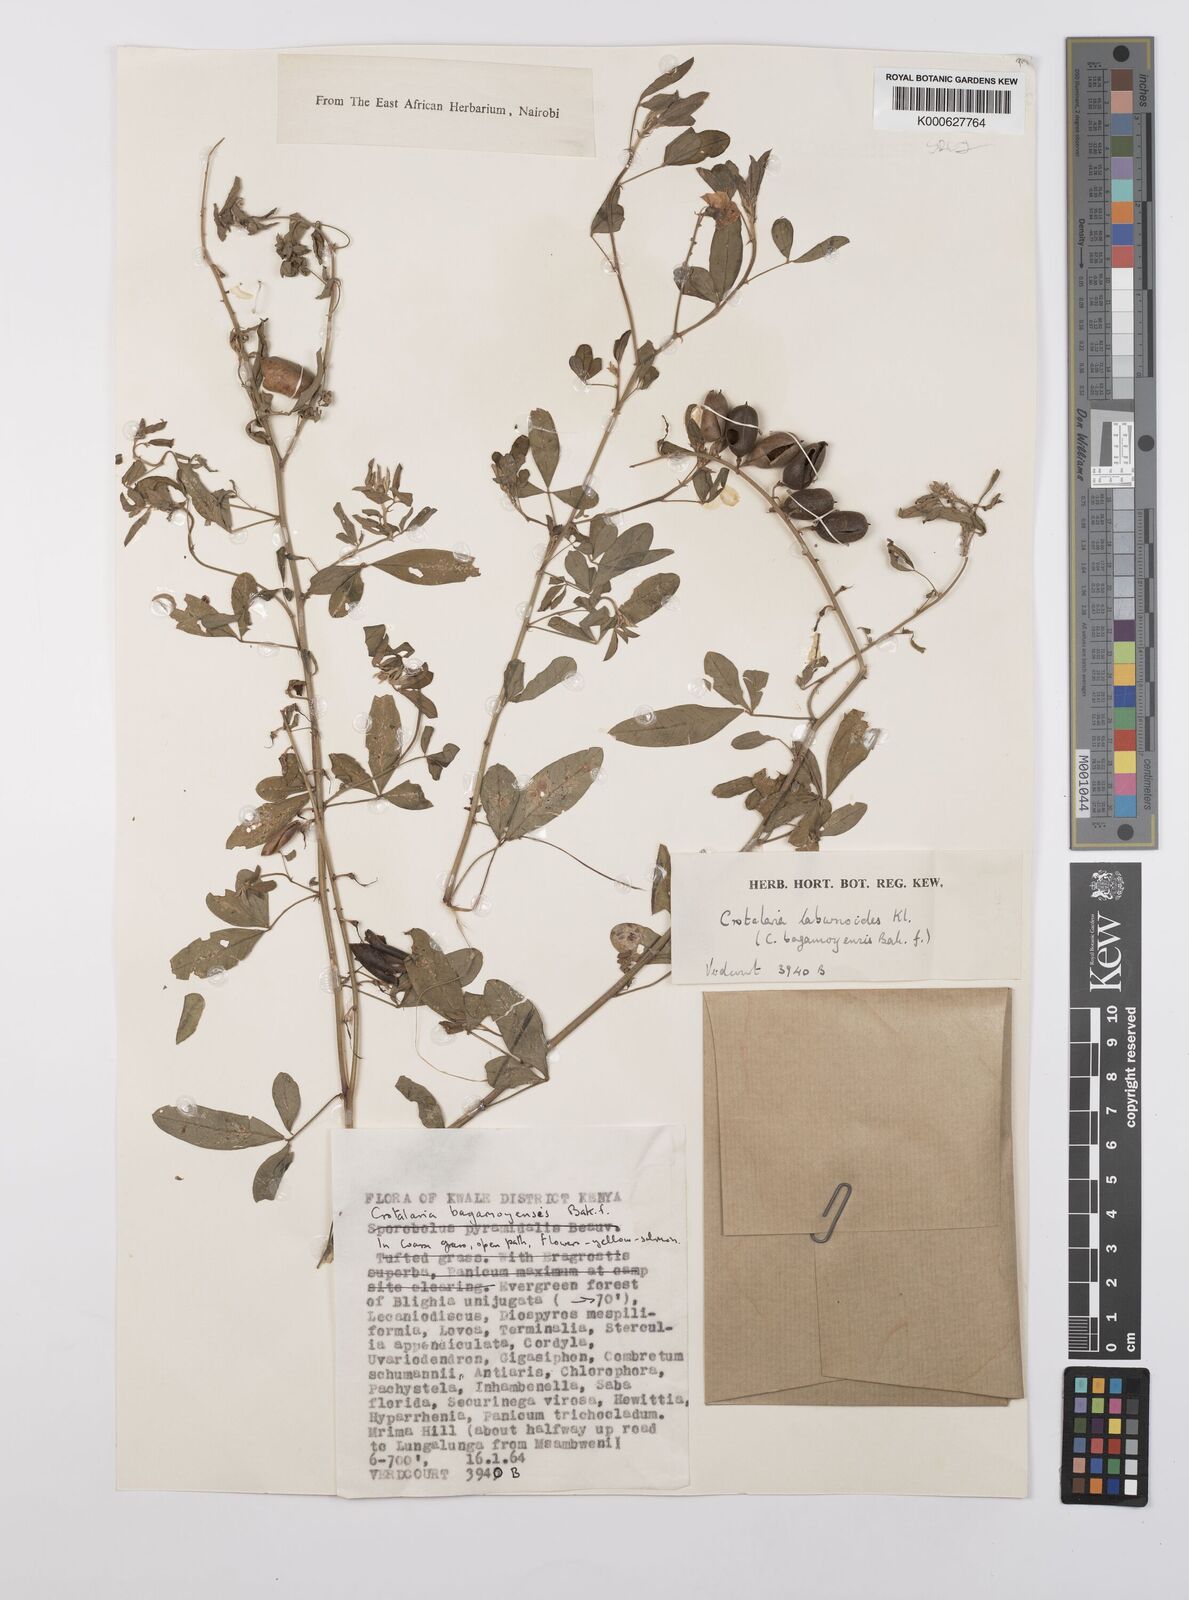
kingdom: Plantae
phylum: Tracheophyta
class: Magnoliopsida
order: Fabales
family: Fabaceae
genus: Crotalaria
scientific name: Crotalaria laburnoides
